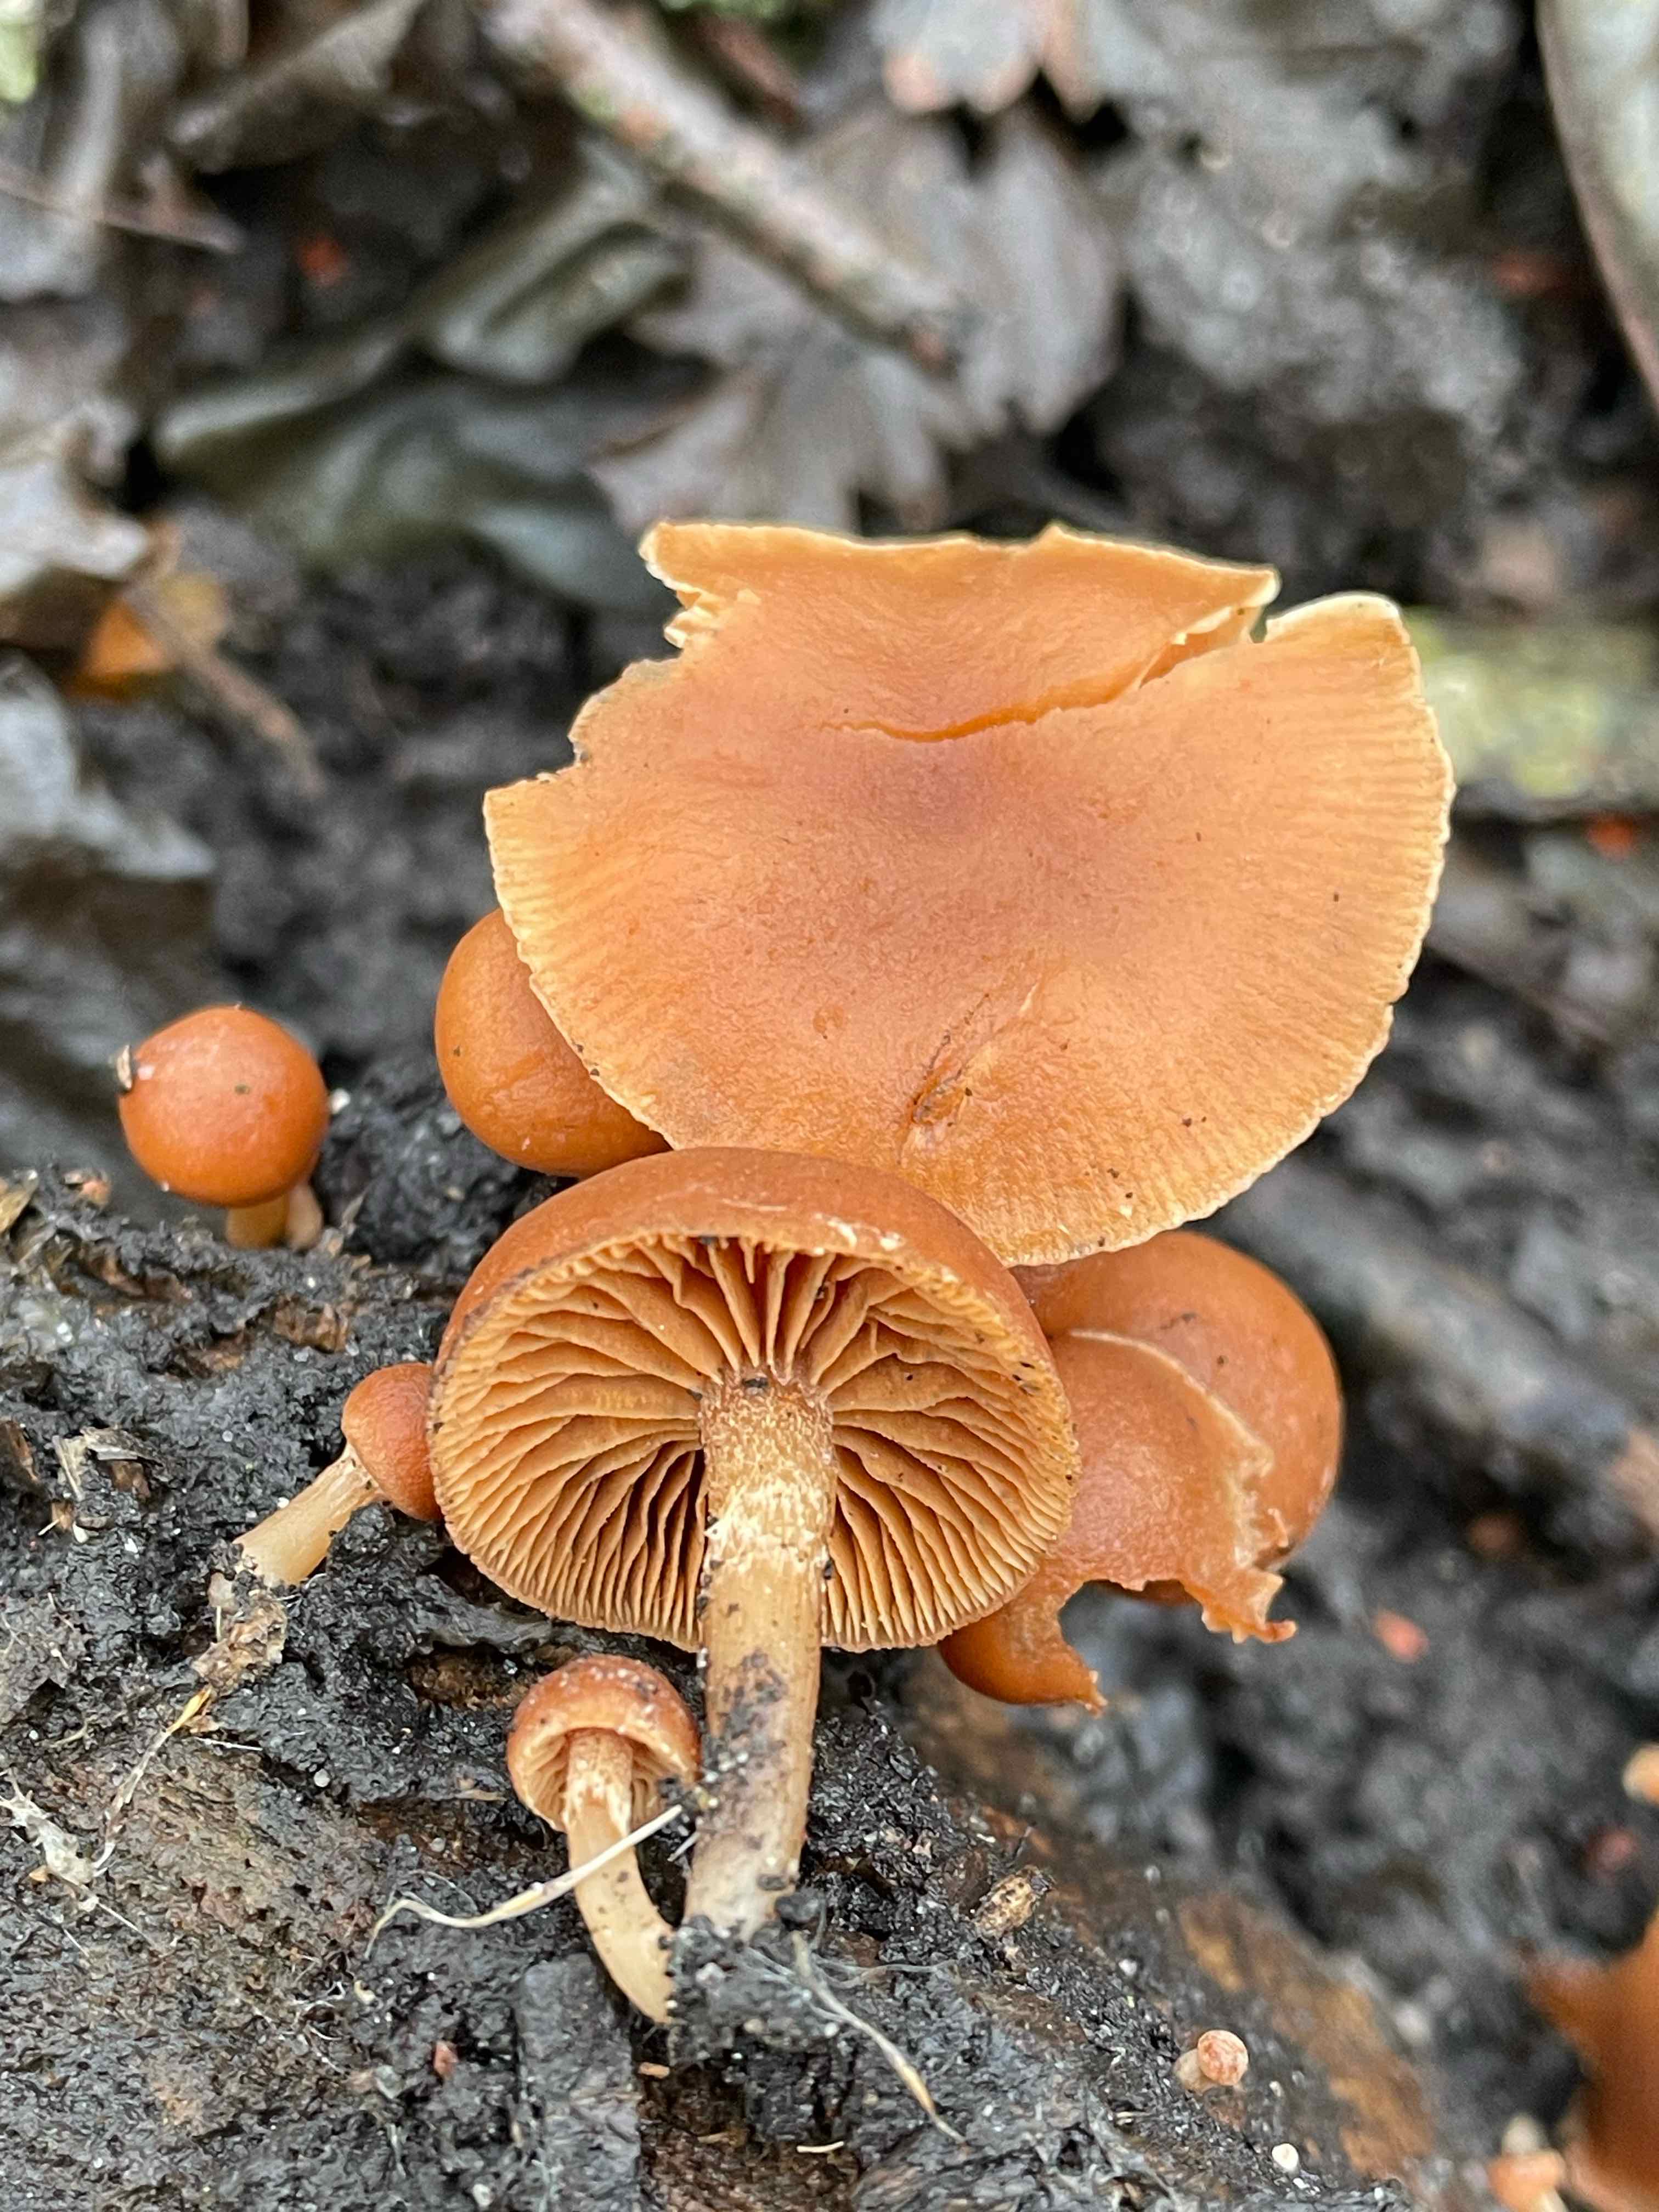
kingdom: Fungi
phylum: Basidiomycota
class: Agaricomycetes
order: Agaricales
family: Tubariaceae
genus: Tubaria
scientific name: Tubaria furfuracea
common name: kliddet fnughat
